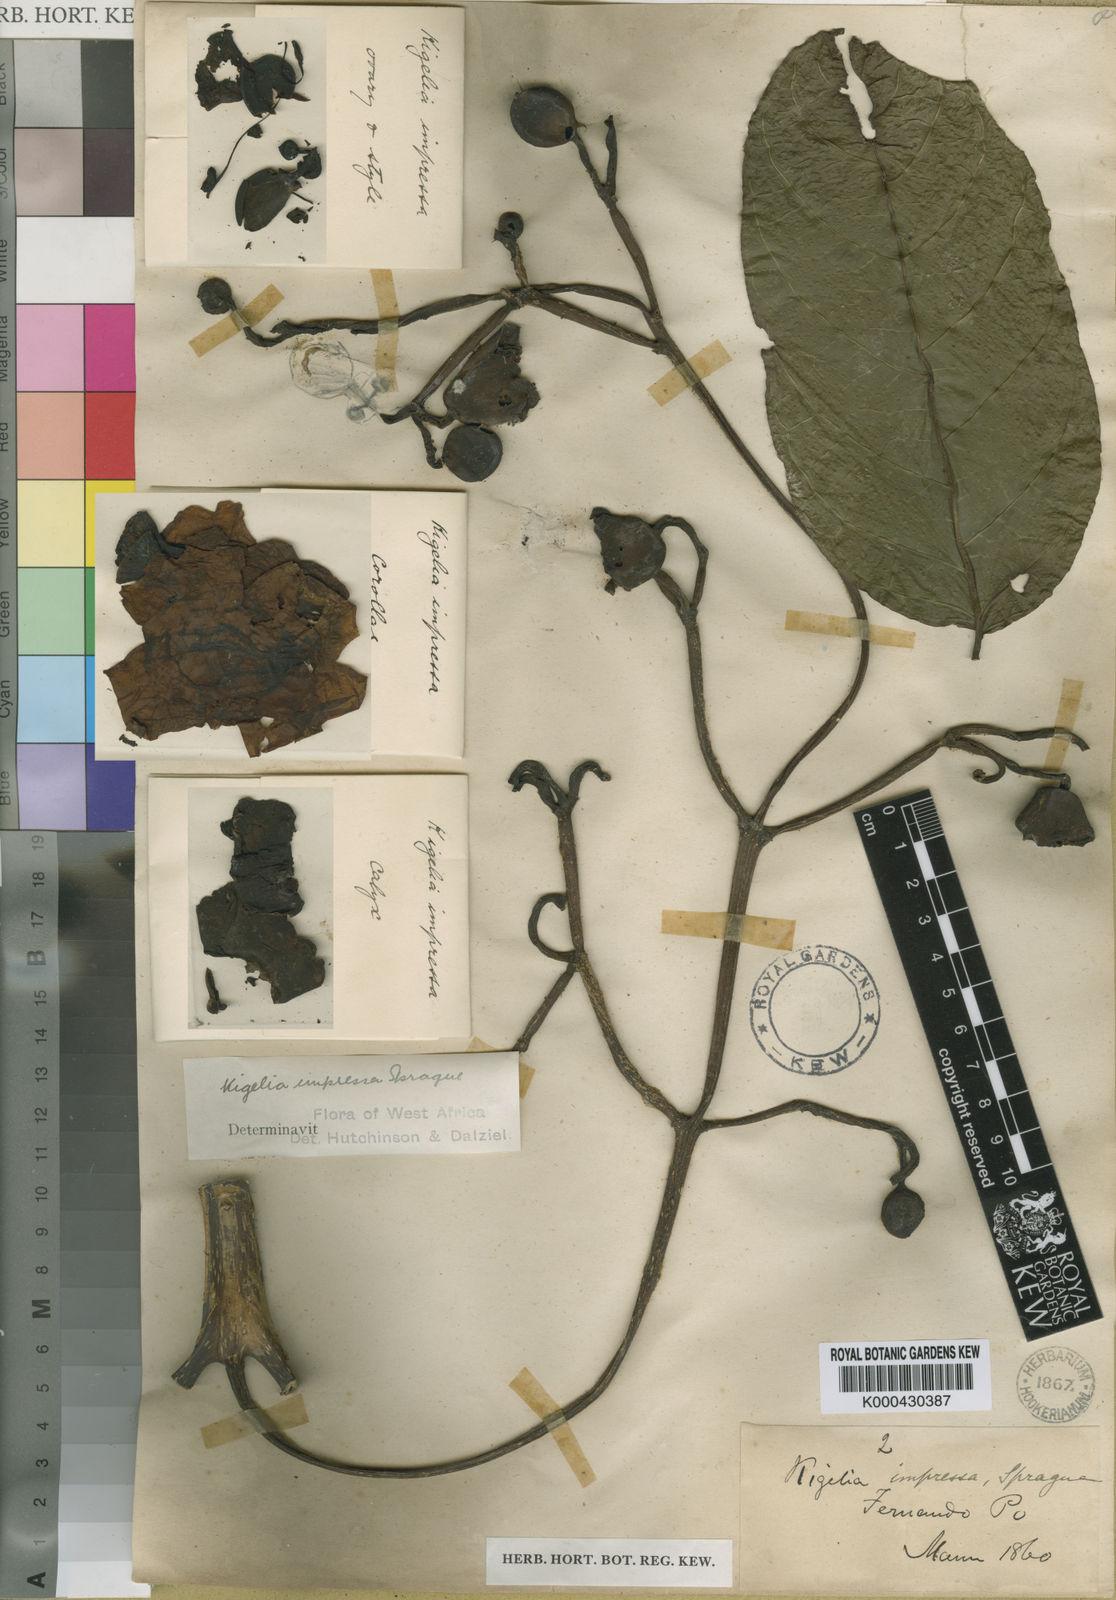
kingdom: Plantae
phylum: Tracheophyta
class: Magnoliopsida
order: Lamiales
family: Bignoniaceae
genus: Kigelia
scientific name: Kigelia africana
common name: Sausage tree
